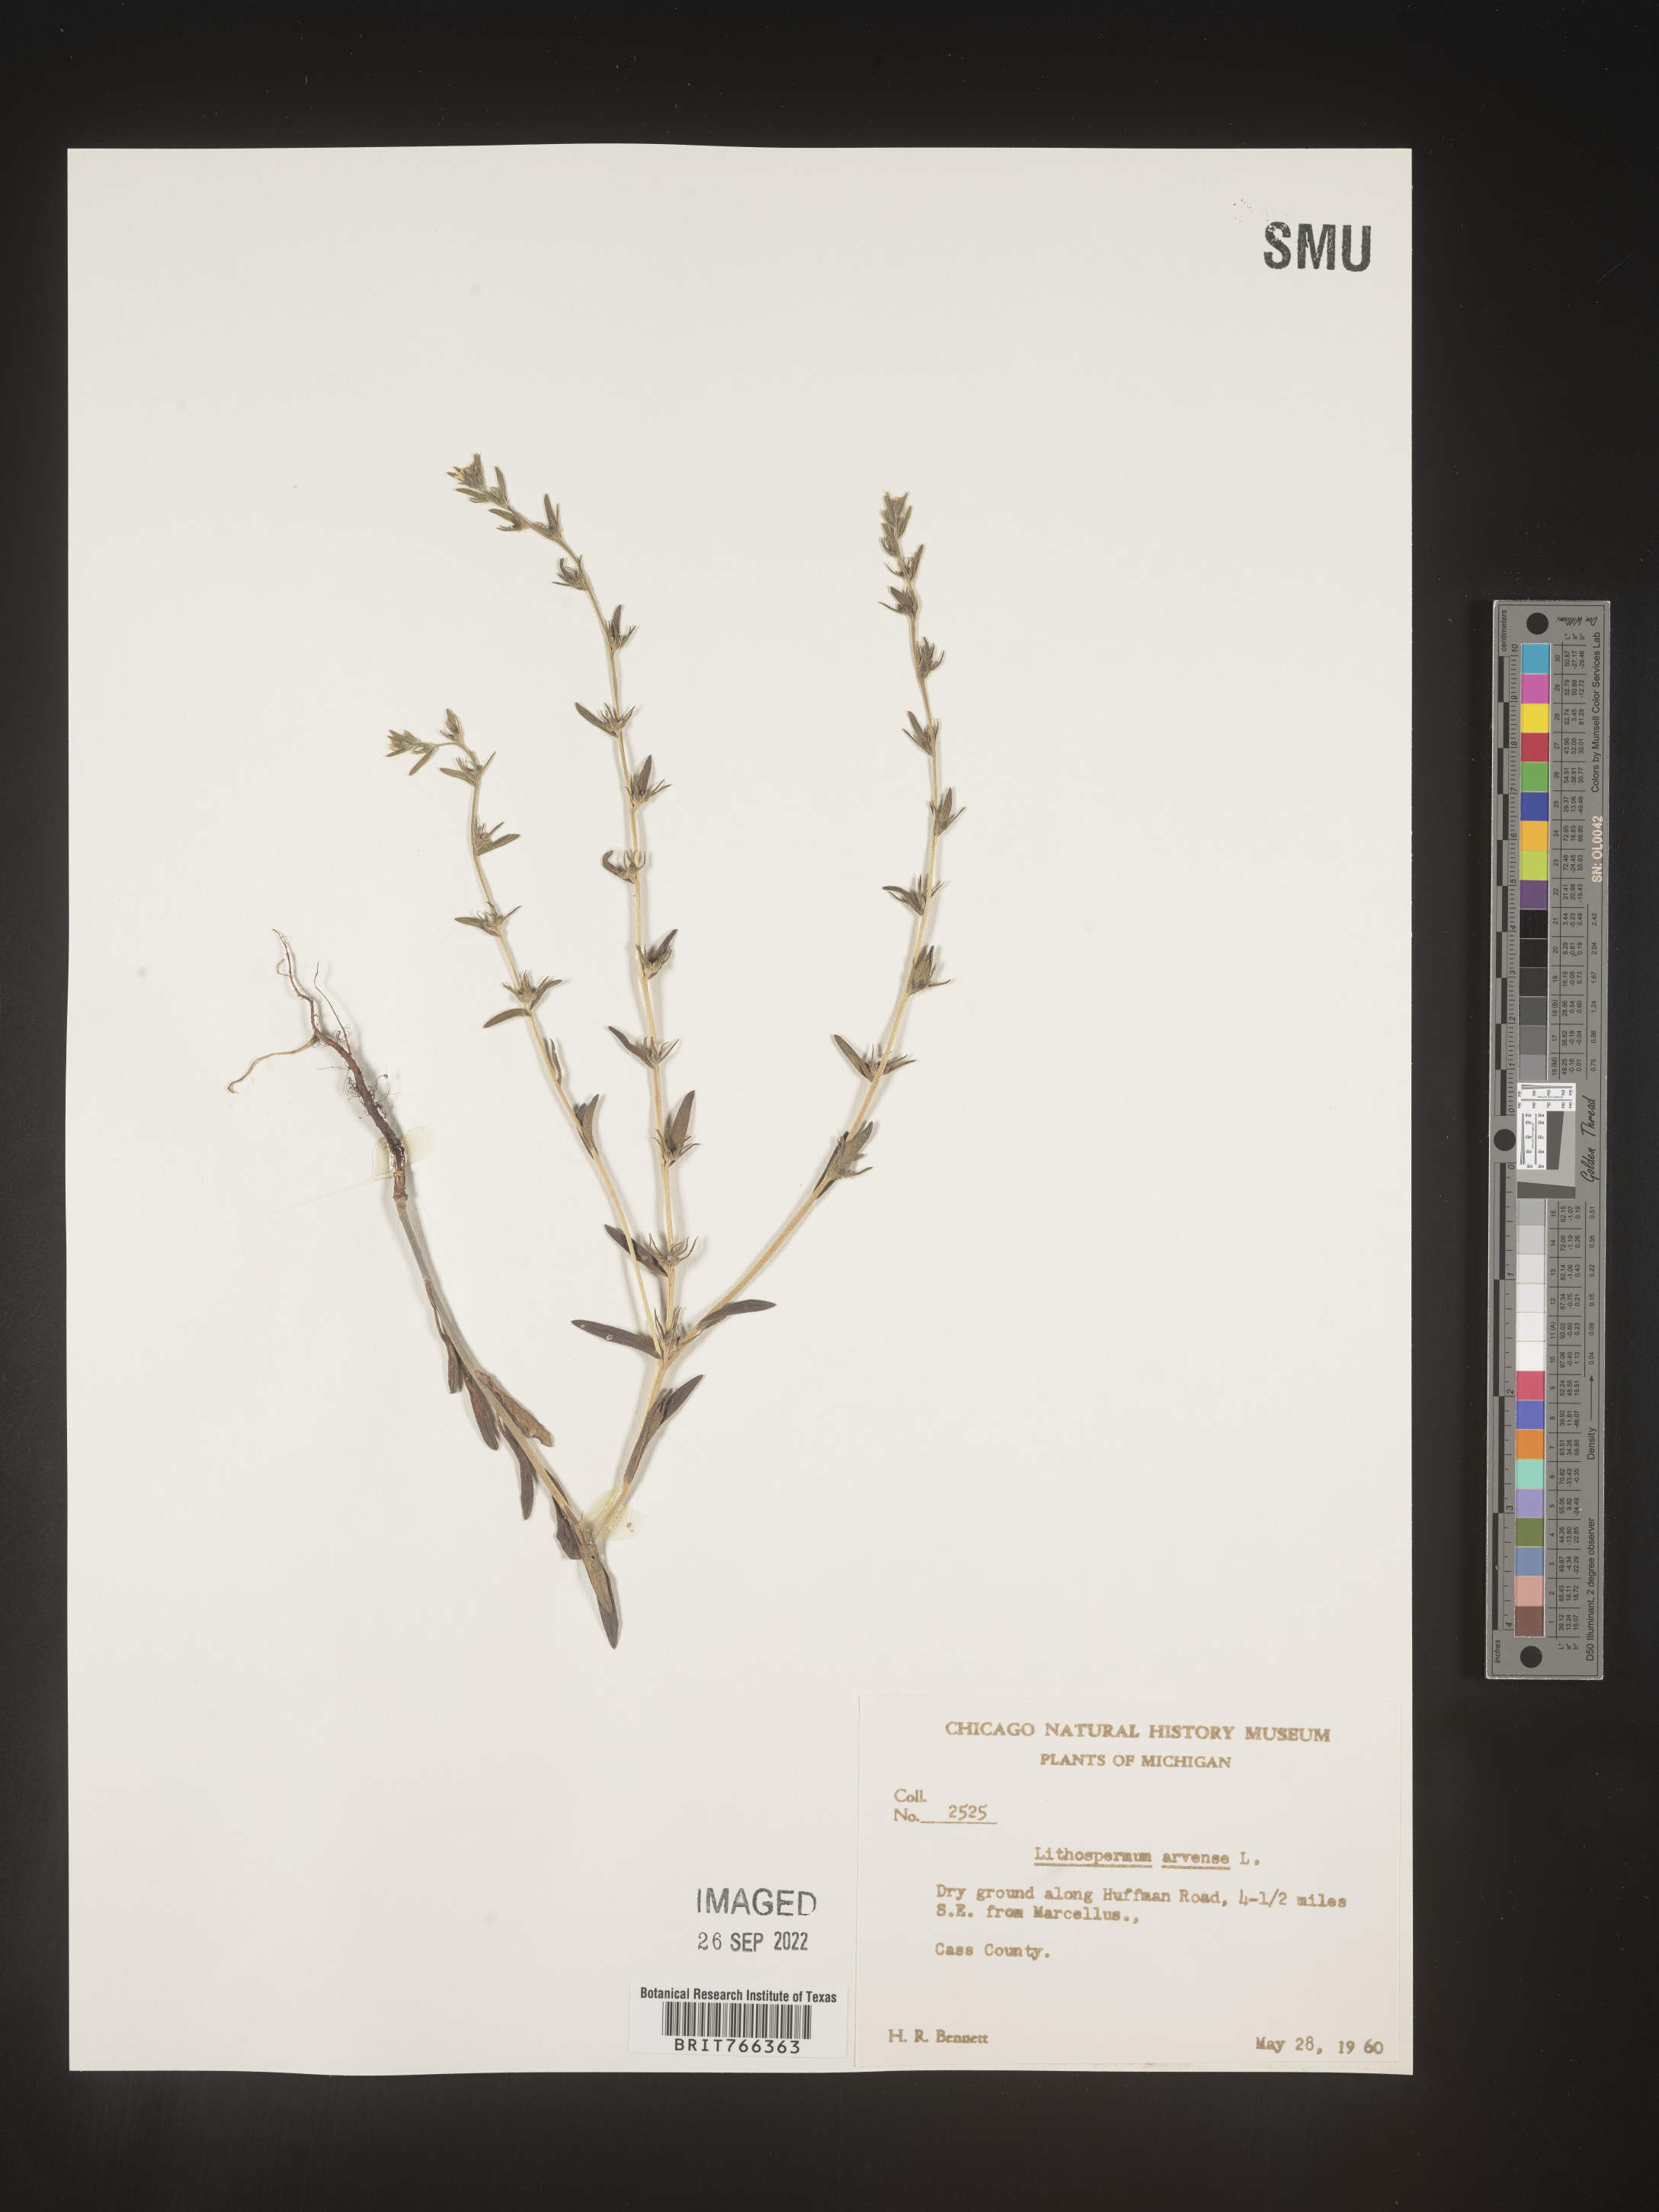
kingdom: Plantae
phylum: Tracheophyta
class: Magnoliopsida
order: Boraginales
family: Boraginaceae
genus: Buglossoides
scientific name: Buglossoides arvensis
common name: Corn gromwell
